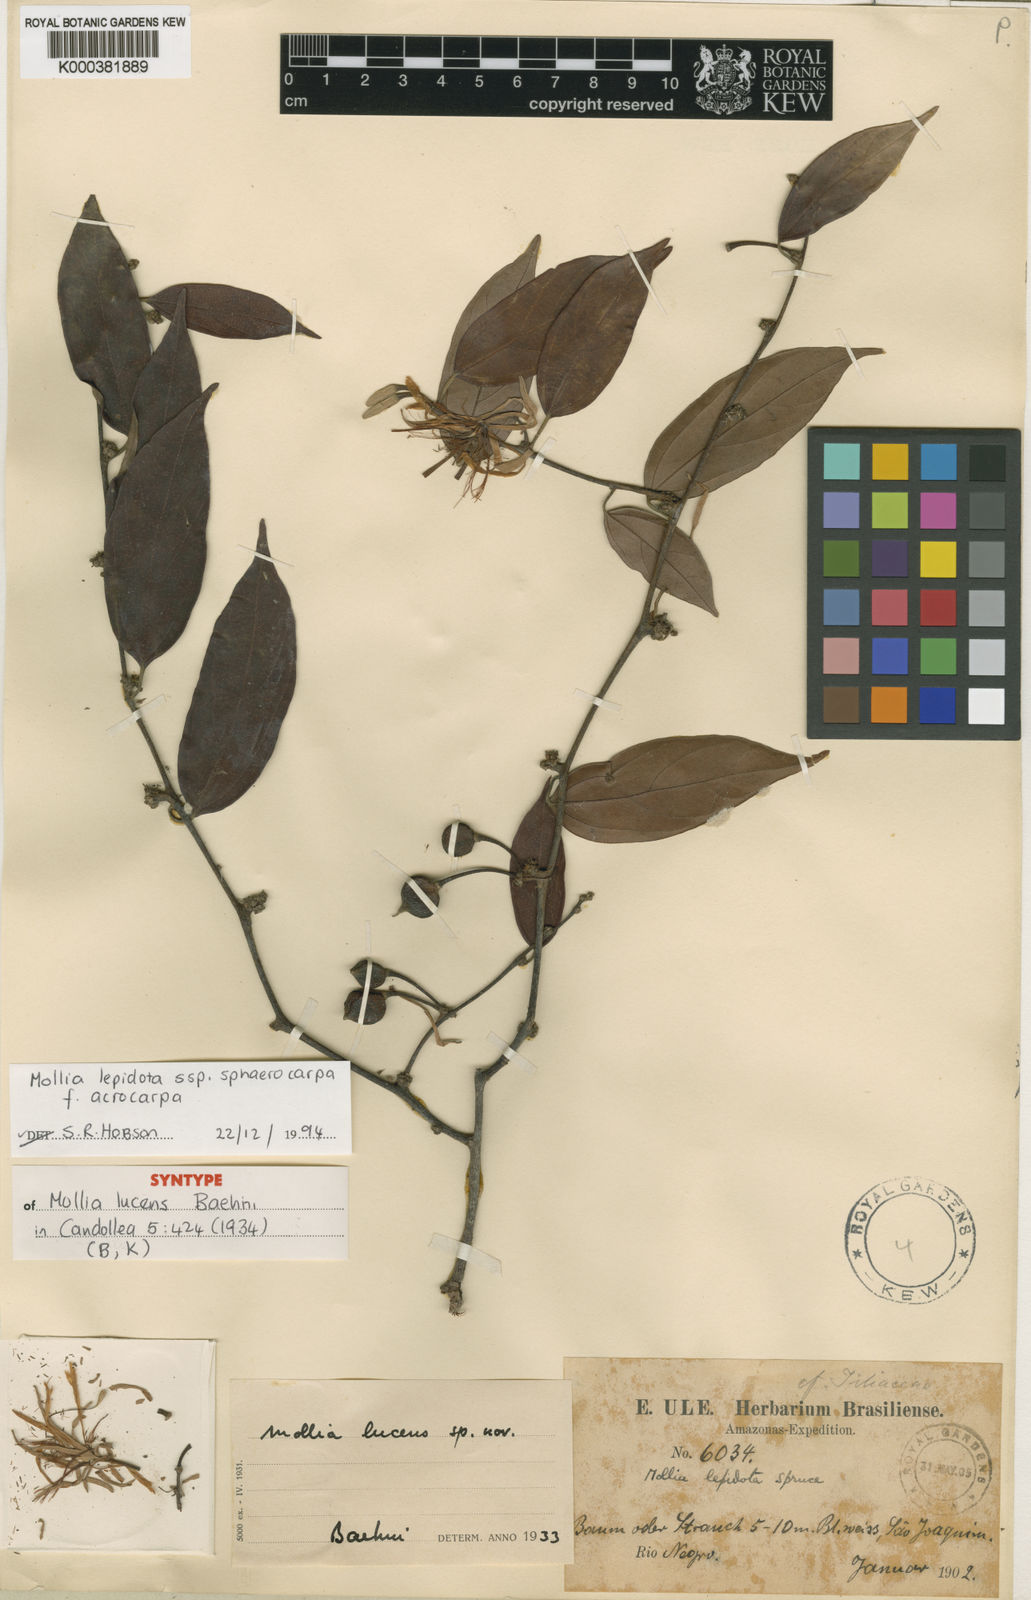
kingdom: Plantae
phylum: Tracheophyta
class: Magnoliopsida
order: Malvales
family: Malvaceae
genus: Mollia
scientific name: Mollia lepidota
